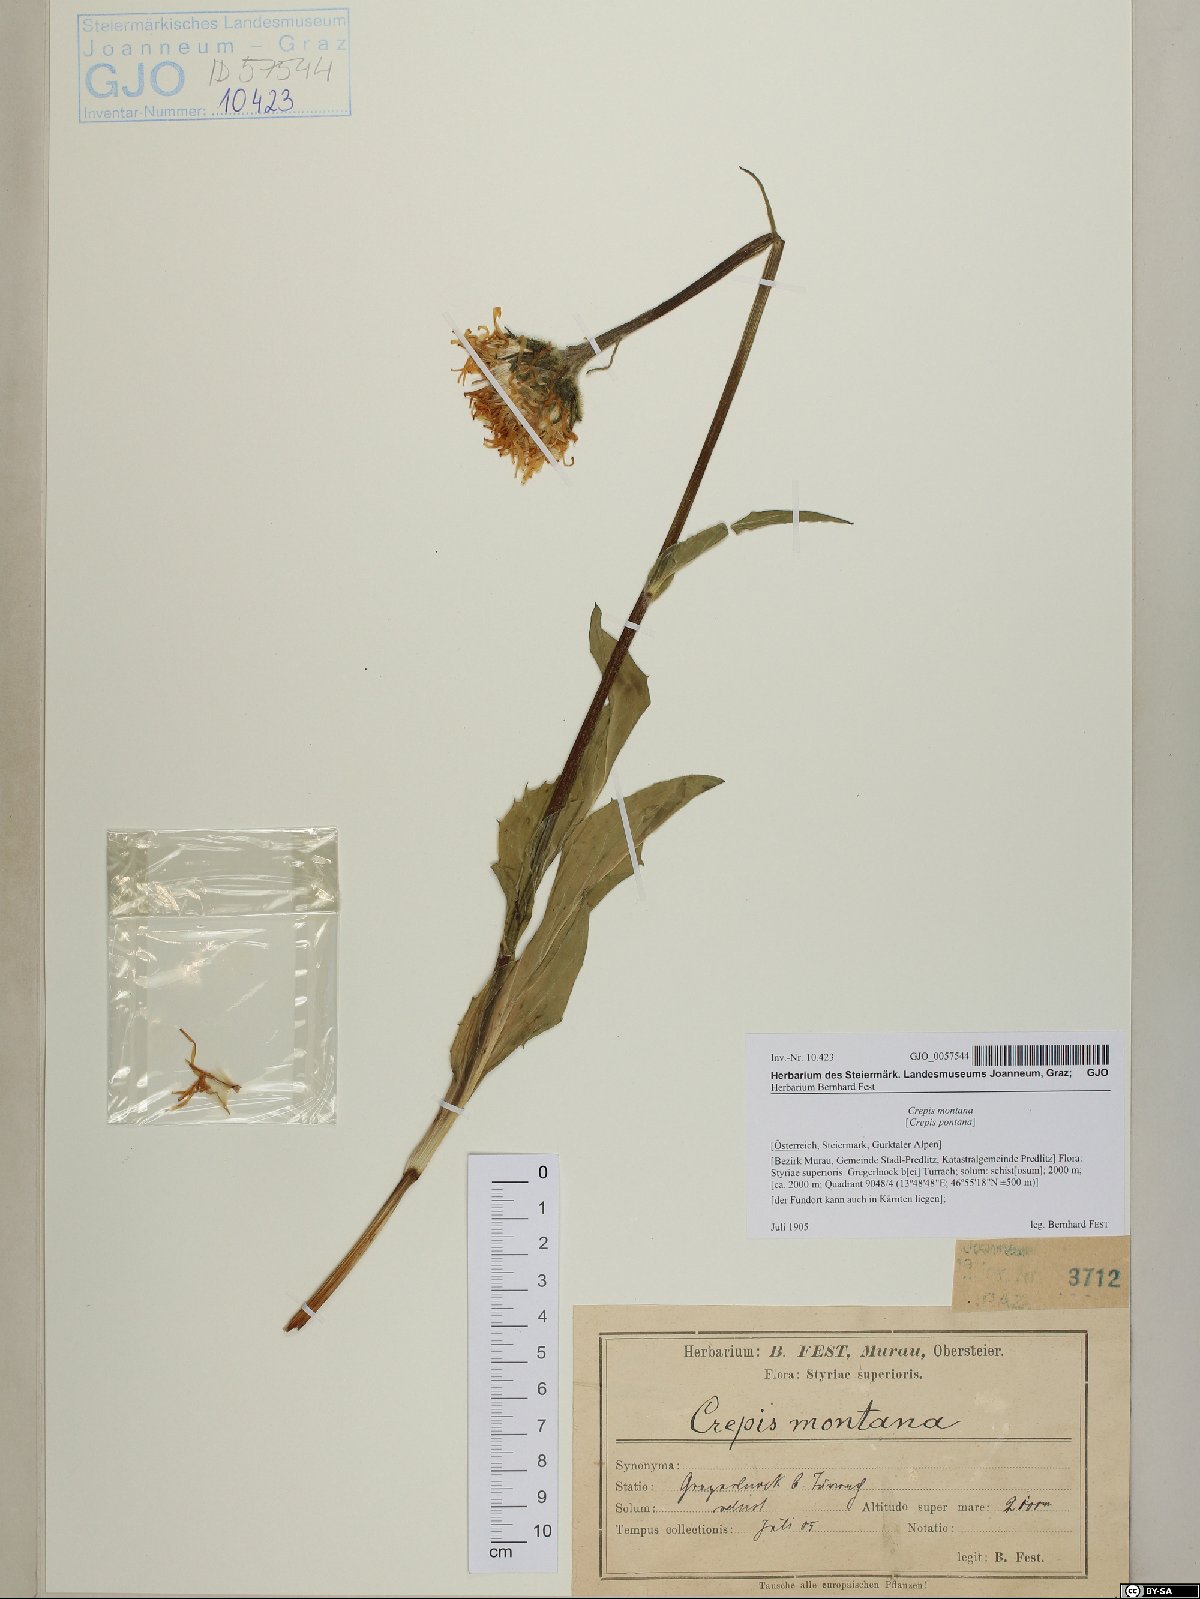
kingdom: Plantae
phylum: Tracheophyta
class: Magnoliopsida
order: Asterales
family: Asteraceae
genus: Crepis
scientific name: Crepis pontana
